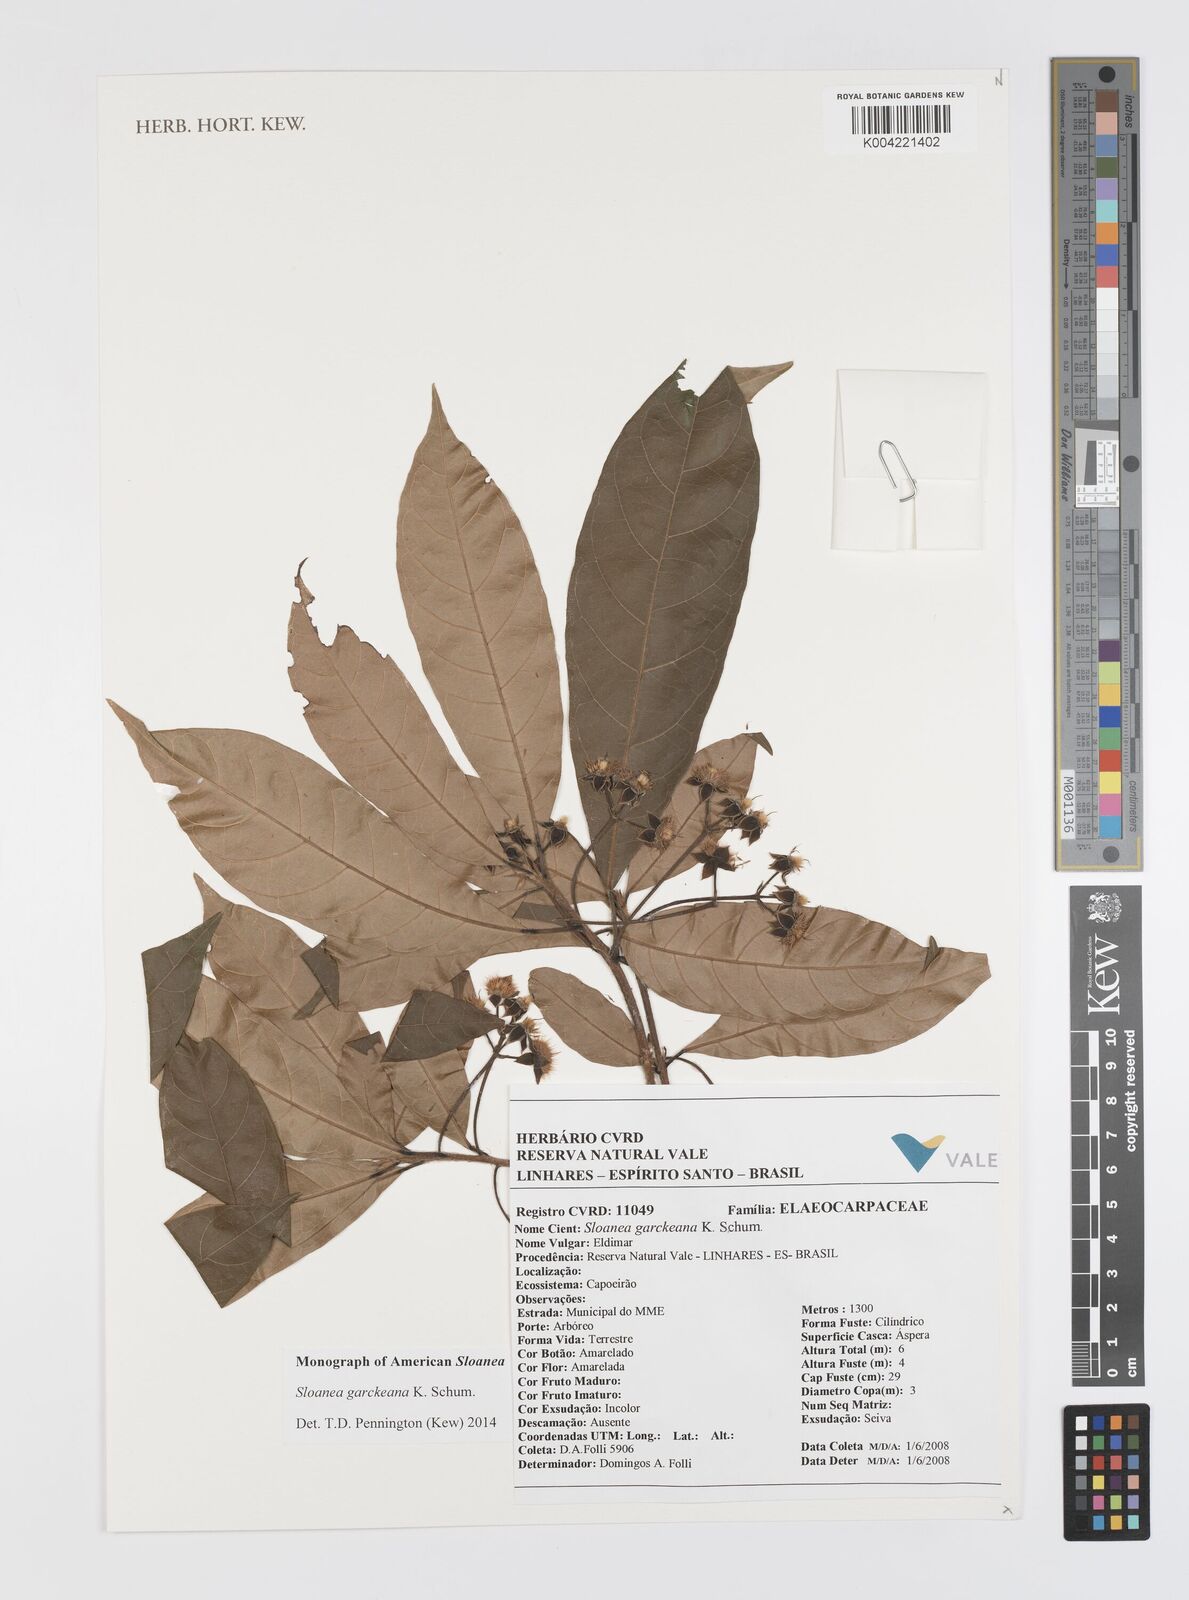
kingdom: Plantae
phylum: Tracheophyta
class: Magnoliopsida
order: Oxalidales
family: Elaeocarpaceae
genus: Sloanea
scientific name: Sloanea garckeana
